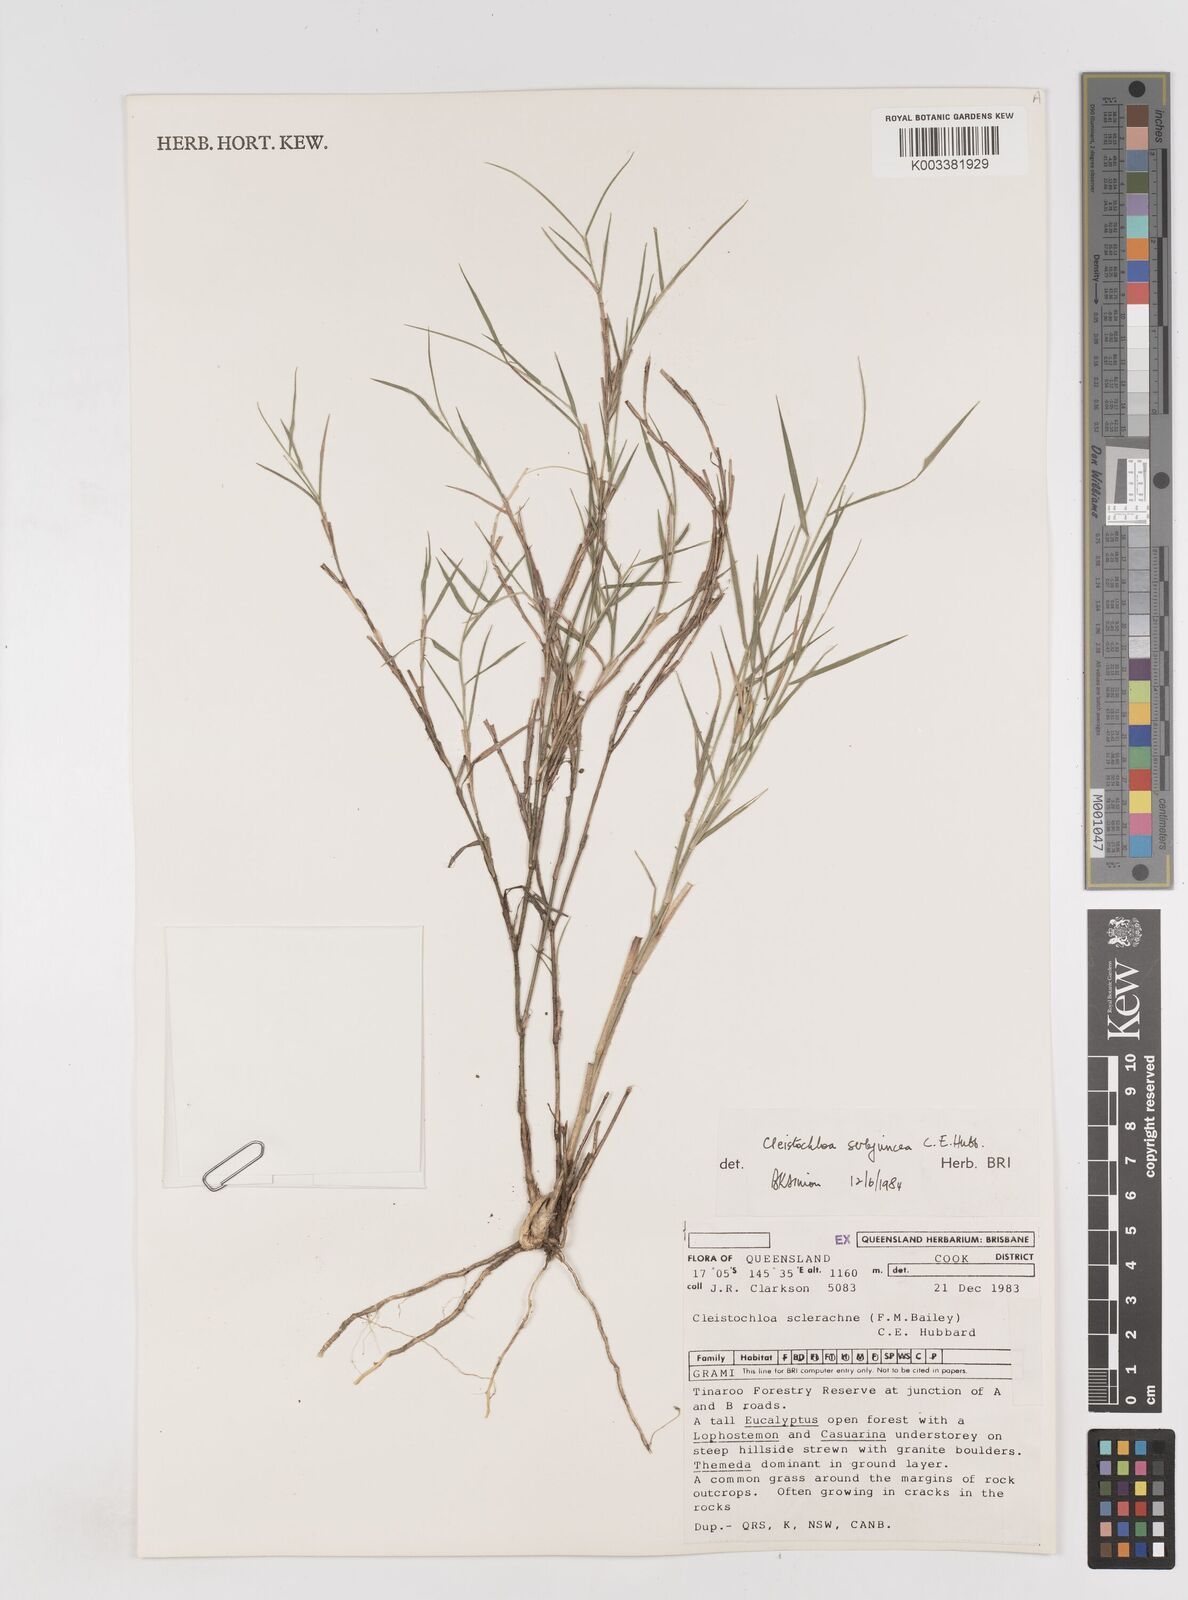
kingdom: Plantae
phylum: Tracheophyta
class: Liliopsida
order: Poales
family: Poaceae
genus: Cleistochloa
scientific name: Cleistochloa subjuncea
